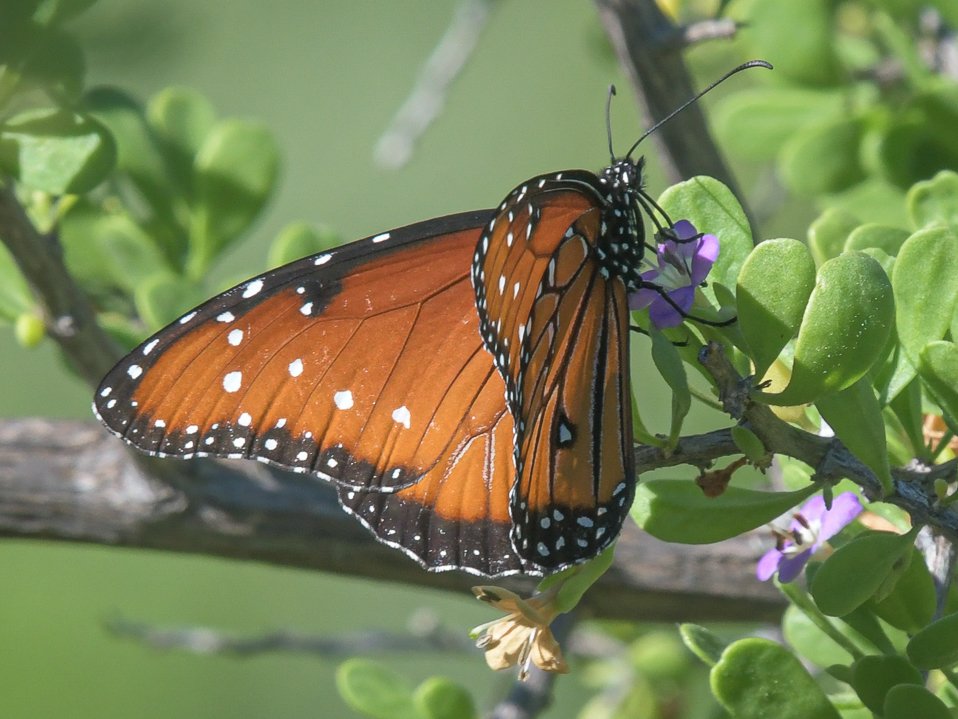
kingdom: Animalia
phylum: Arthropoda
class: Insecta
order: Lepidoptera
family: Nymphalidae
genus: Danaus
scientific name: Danaus gilippus
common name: Queen
